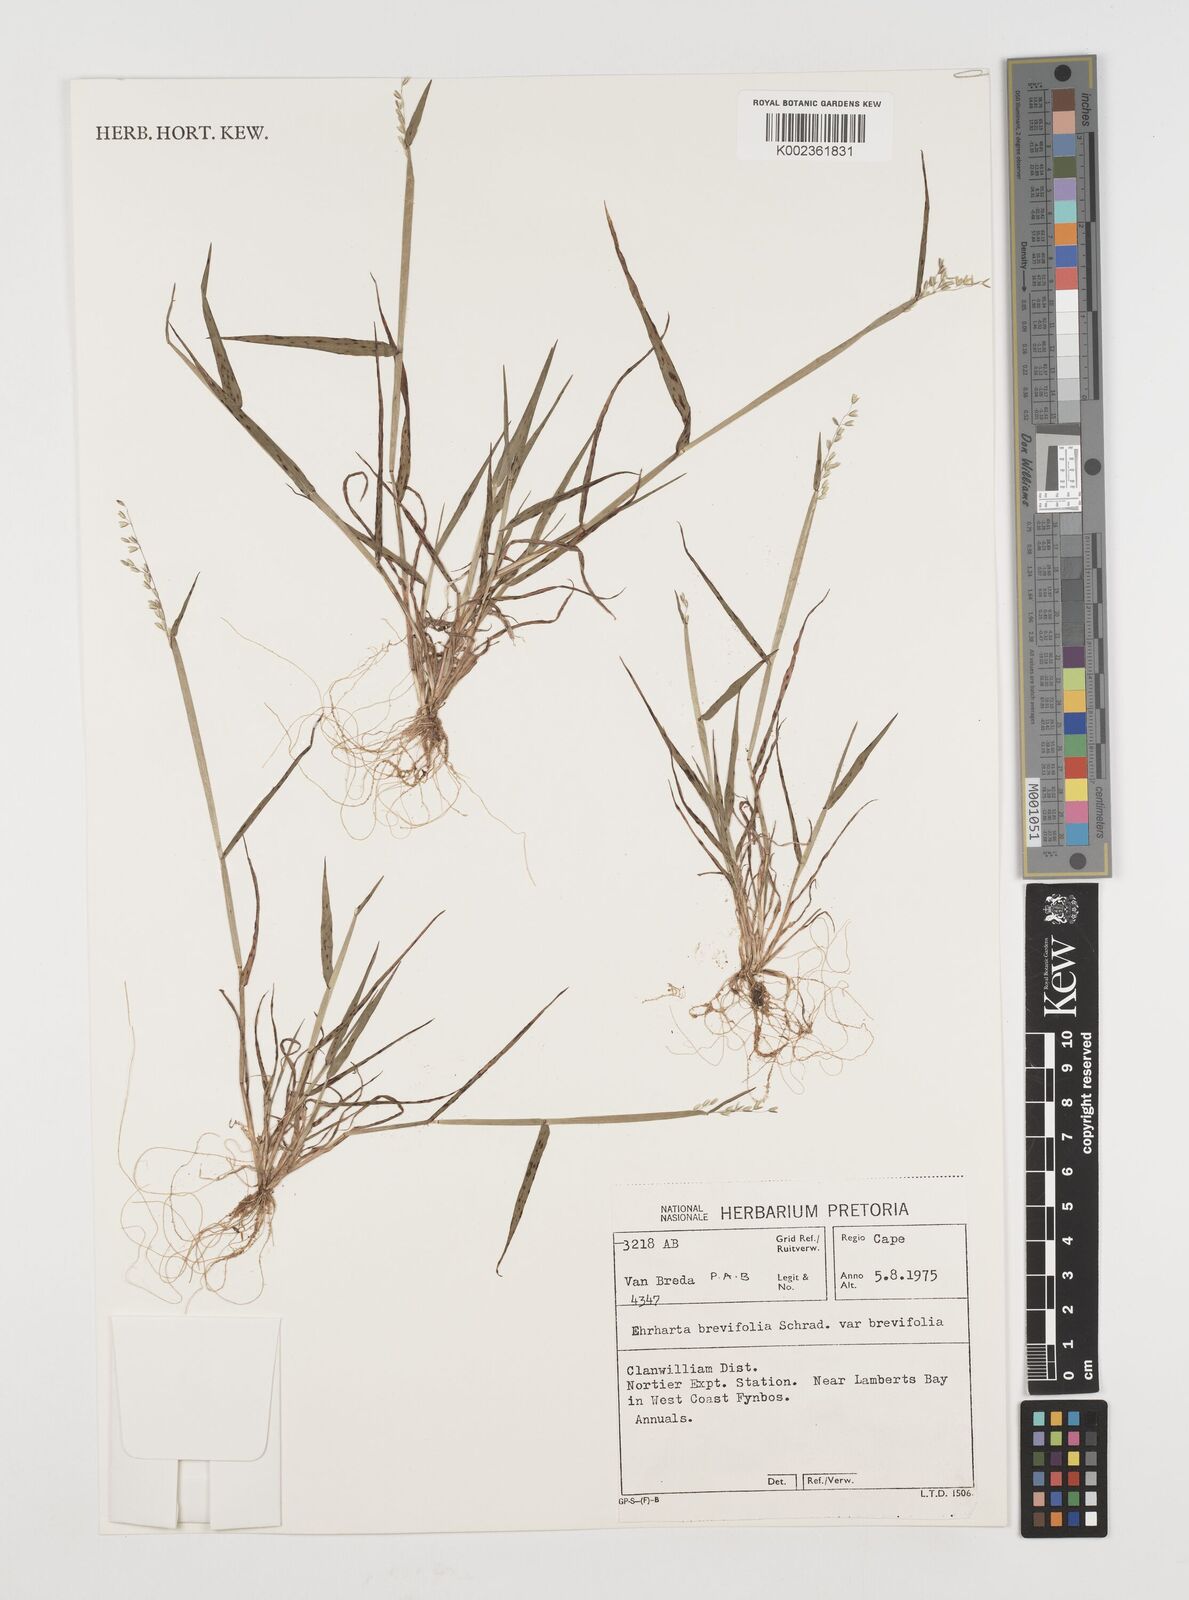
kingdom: Plantae
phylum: Tracheophyta
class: Liliopsida
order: Poales
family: Poaceae
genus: Ehrharta
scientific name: Ehrharta brevifolia
